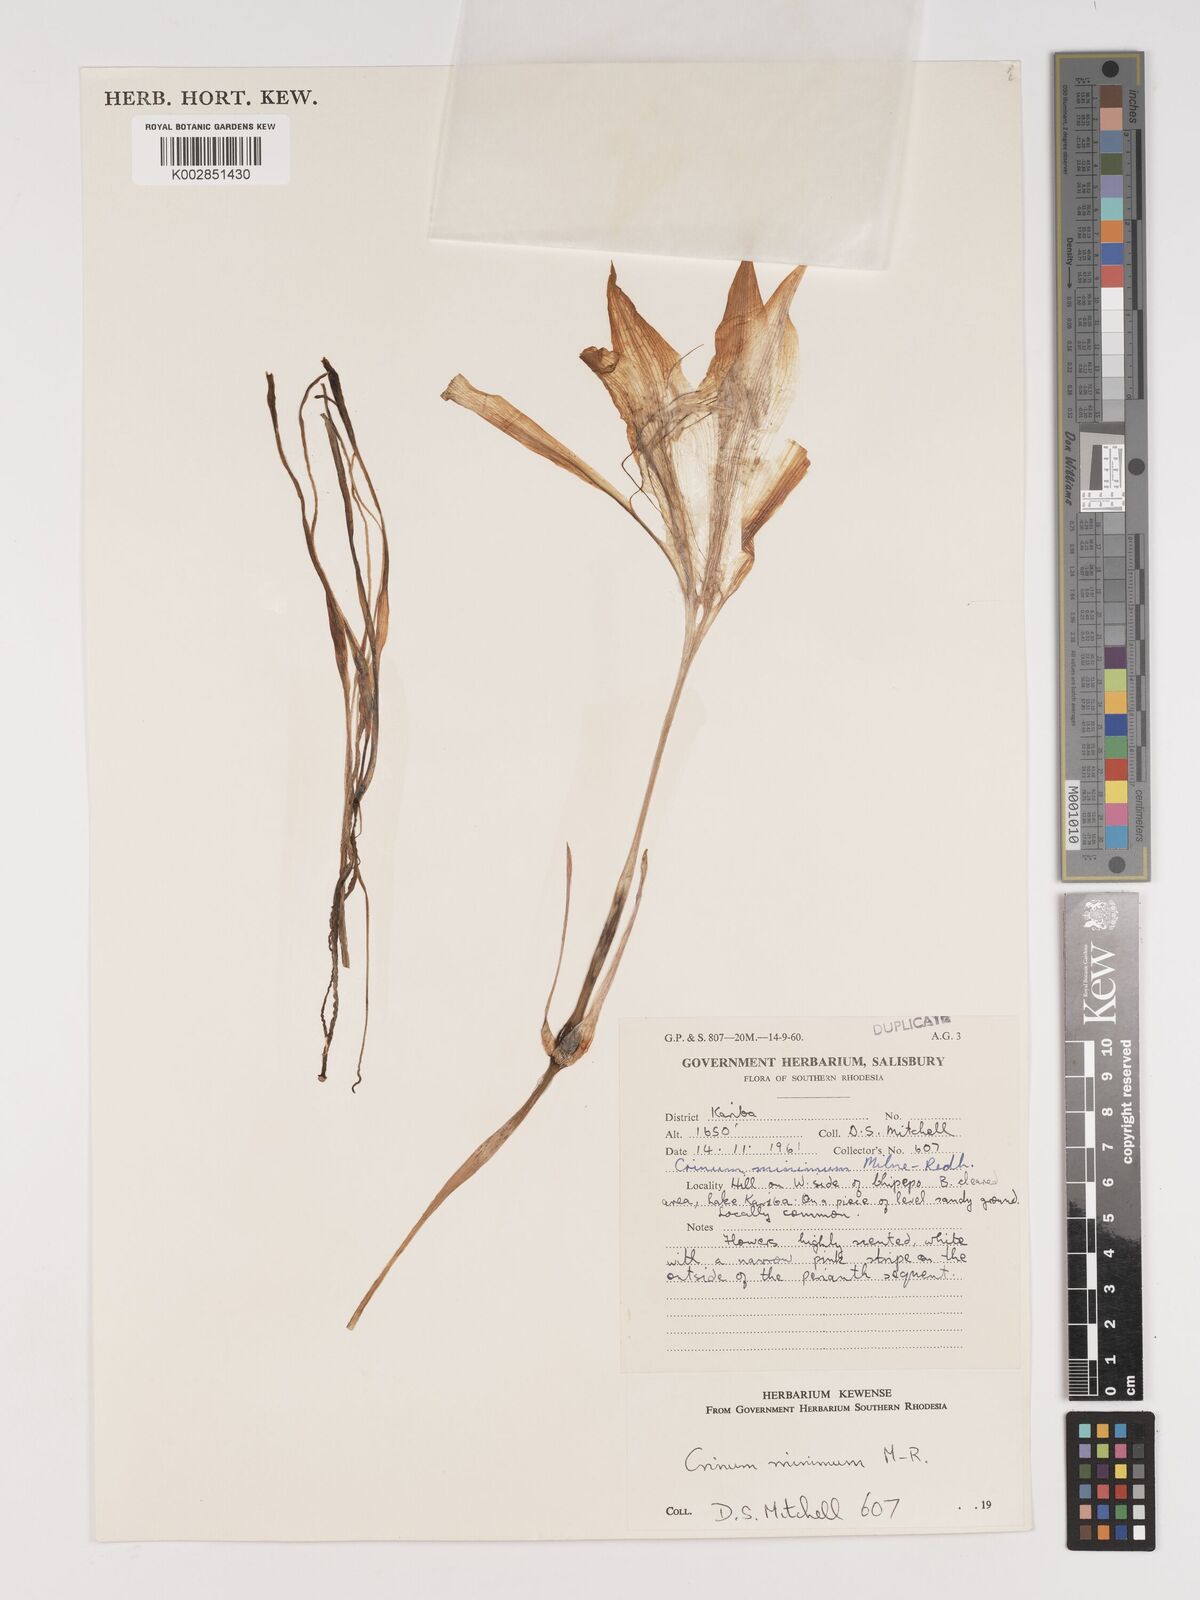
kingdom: Plantae
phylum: Tracheophyta
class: Liliopsida
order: Asparagales
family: Amaryllidaceae
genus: Crinum
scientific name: Crinum walteri
